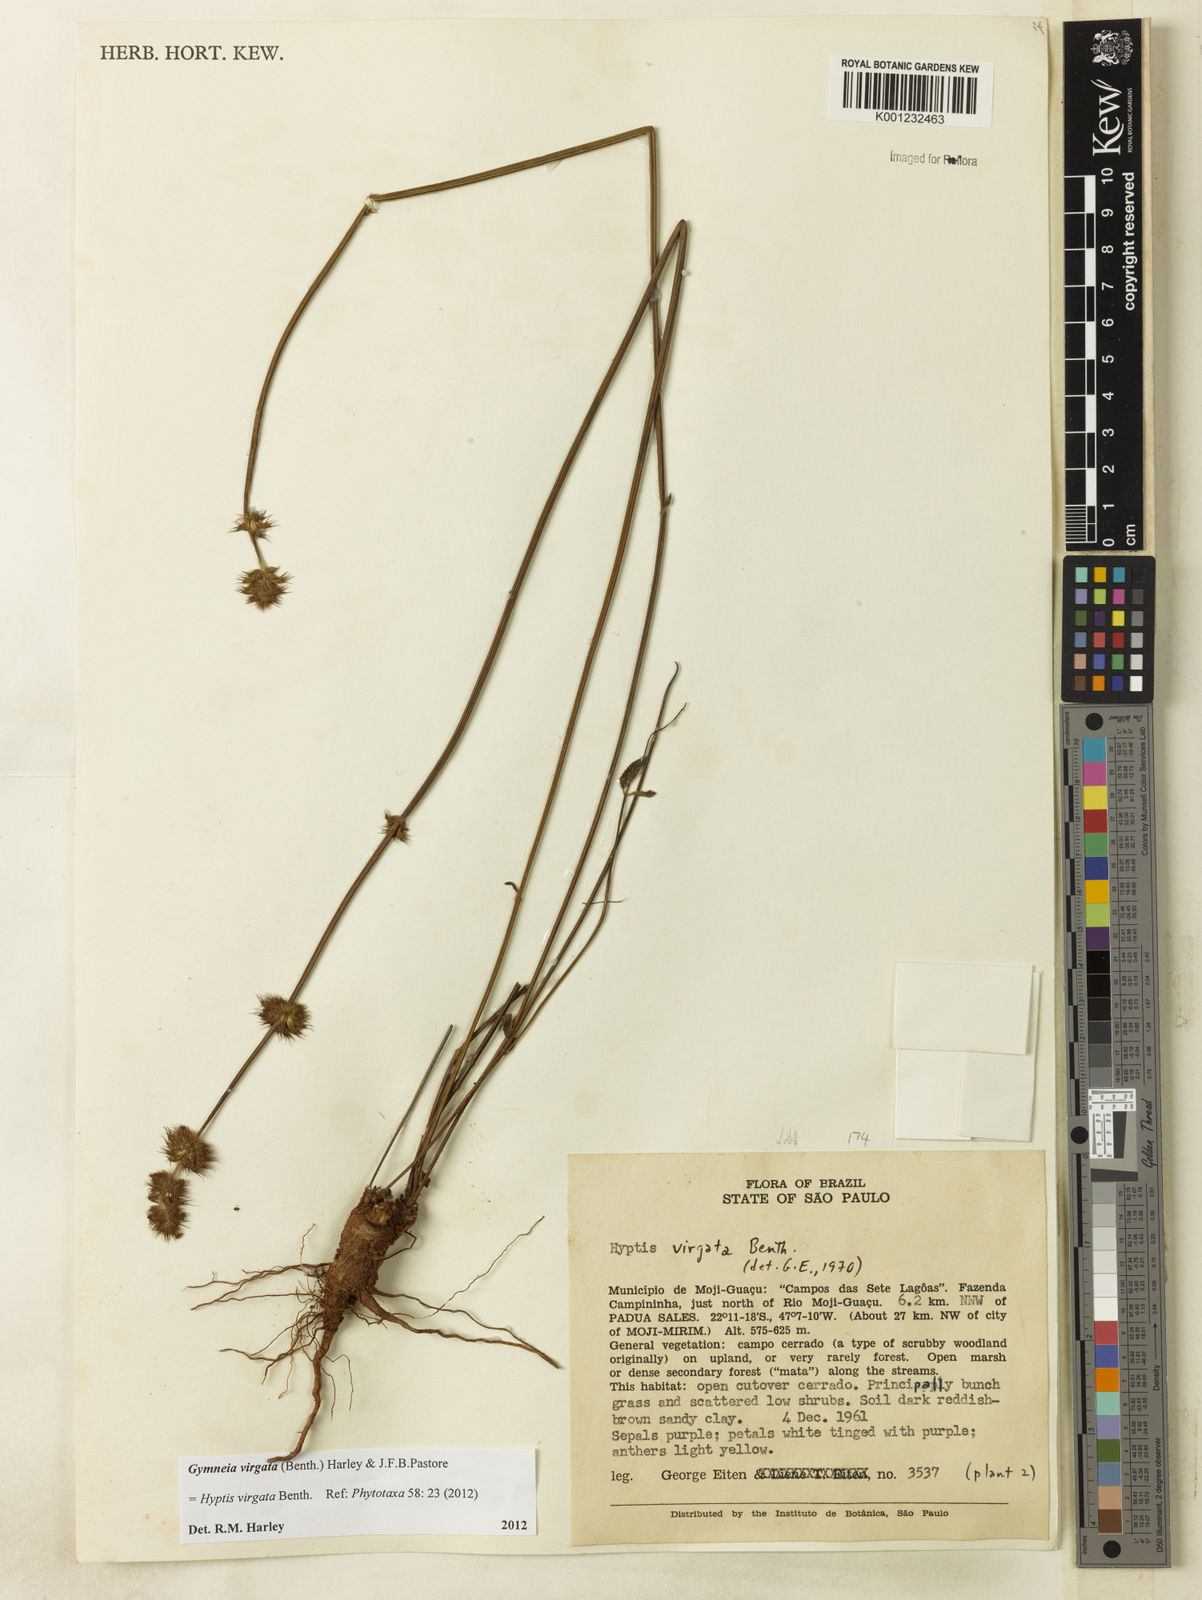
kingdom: Plantae
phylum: Tracheophyta
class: Magnoliopsida
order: Lamiales
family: Lamiaceae
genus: Gymneia
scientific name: Gymneia virgata
